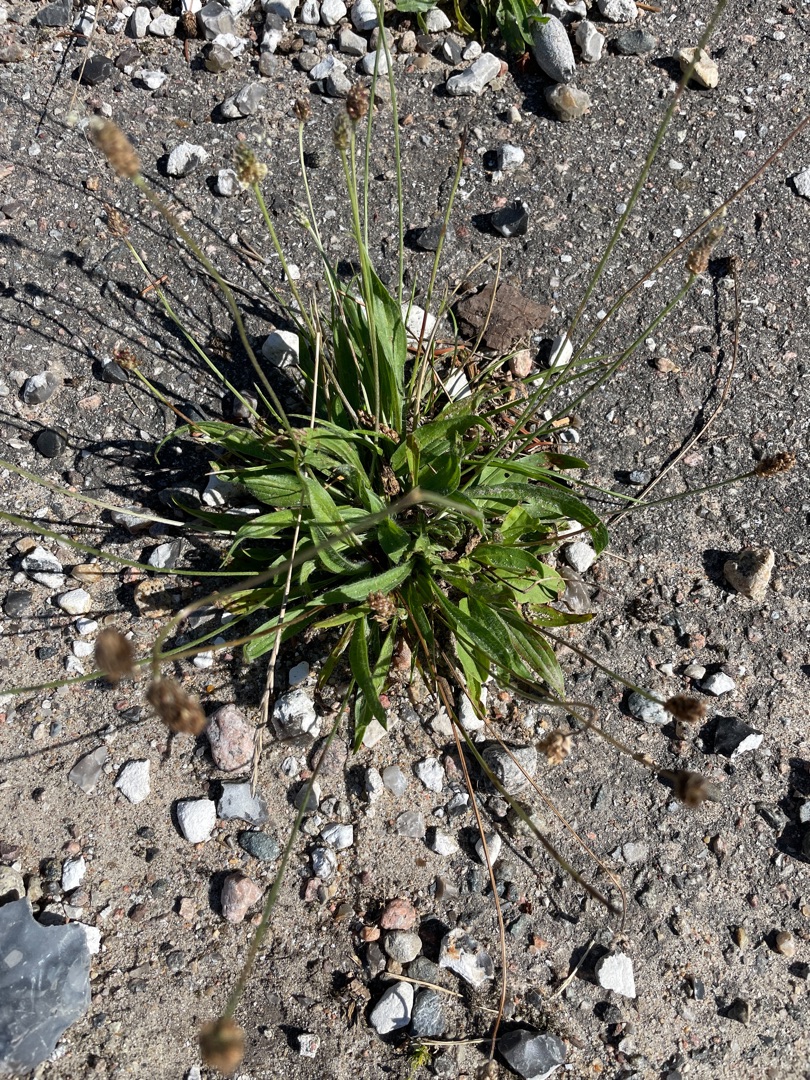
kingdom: Plantae
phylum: Tracheophyta
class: Magnoliopsida
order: Lamiales
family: Plantaginaceae
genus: Plantago
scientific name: Plantago lanceolata
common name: Lancet-vejbred
